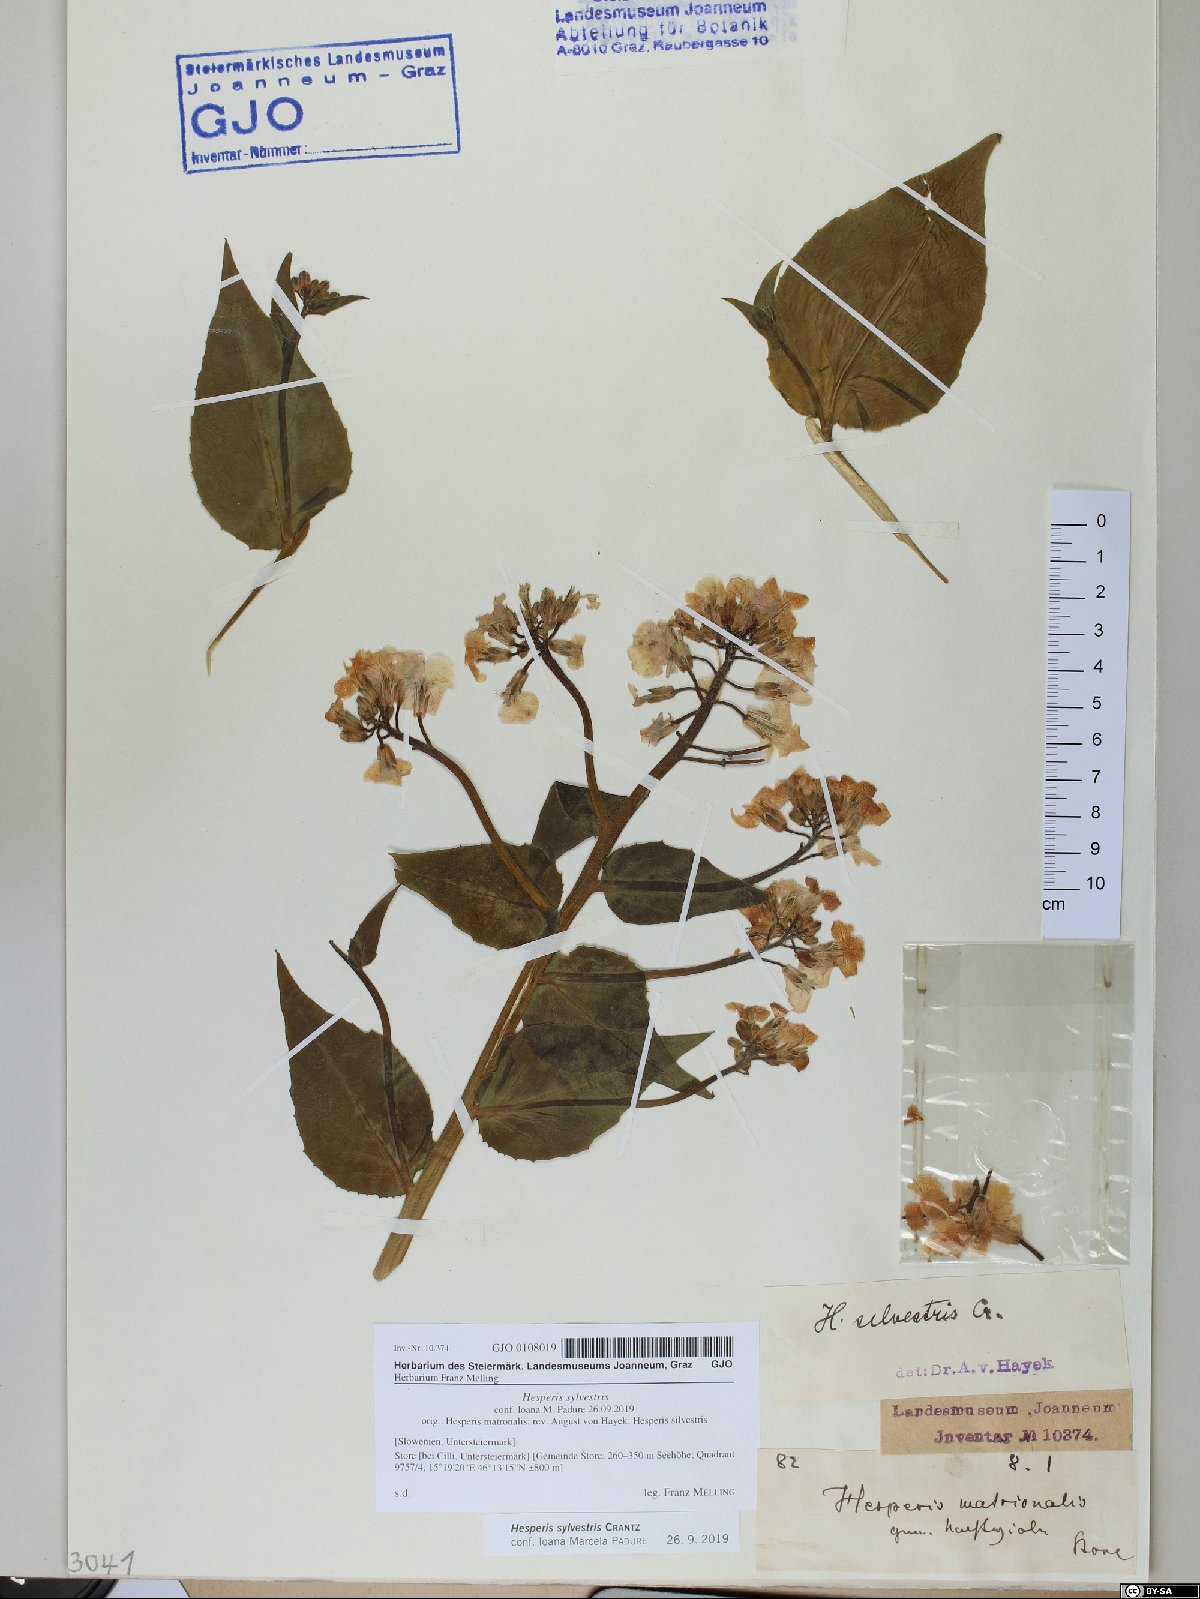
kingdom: Plantae
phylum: Tracheophyta
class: Magnoliopsida
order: Brassicales
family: Brassicaceae
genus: Hesperis
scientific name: Hesperis sylvestris
